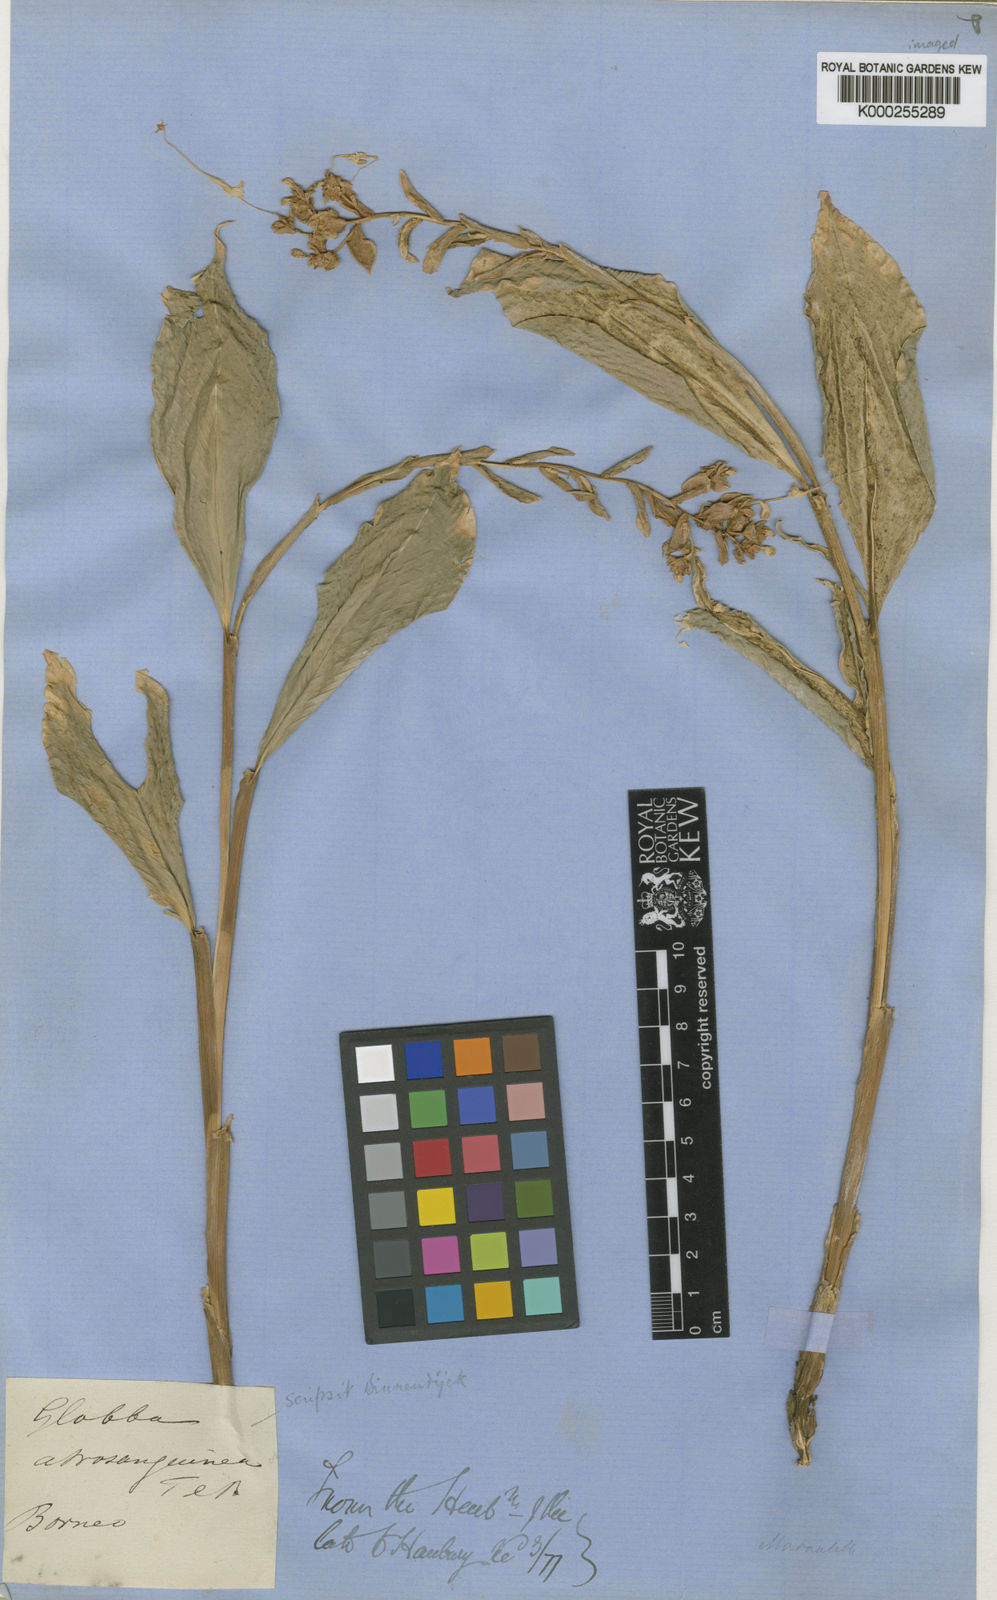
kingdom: Plantae
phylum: Tracheophyta
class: Liliopsida
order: Zingiberales
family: Zingiberaceae
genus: Globba
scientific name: Globba atrosanguinea
